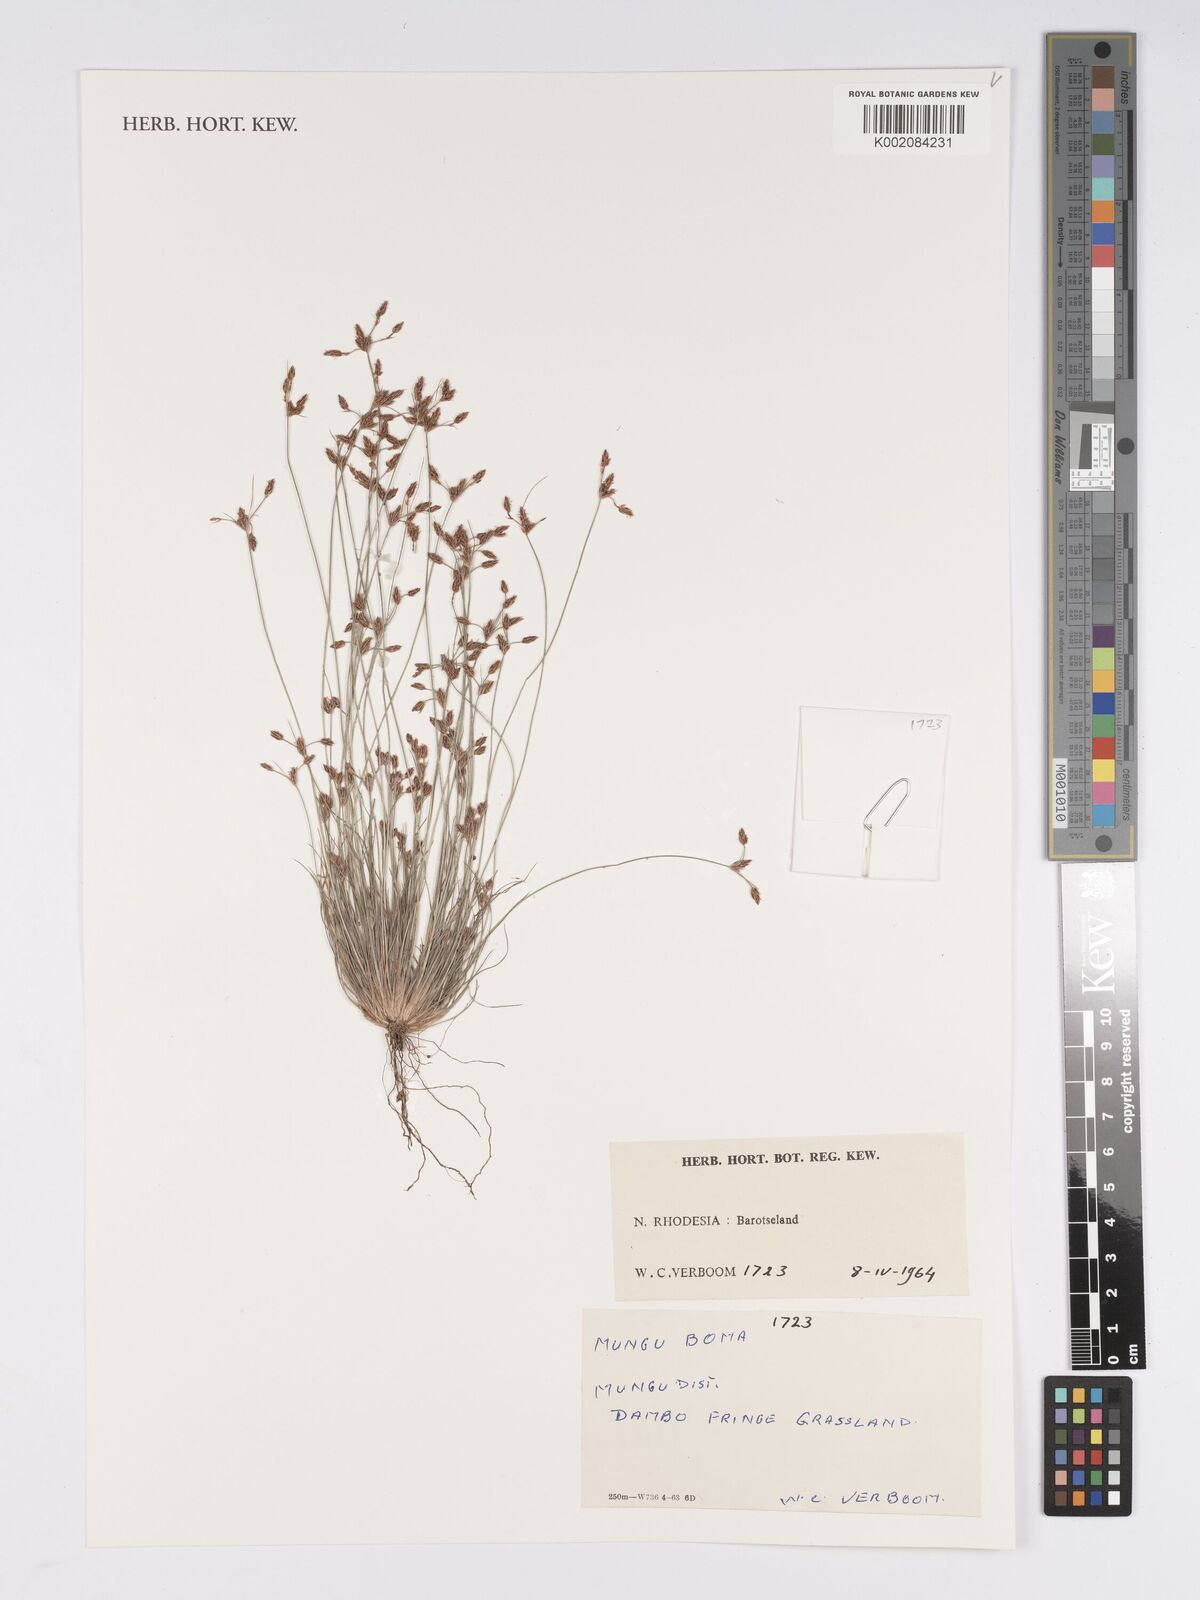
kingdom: Plantae
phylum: Tracheophyta
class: Liliopsida
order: Poales
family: Cyperaceae
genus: Bulbostylis
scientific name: Bulbostylis
